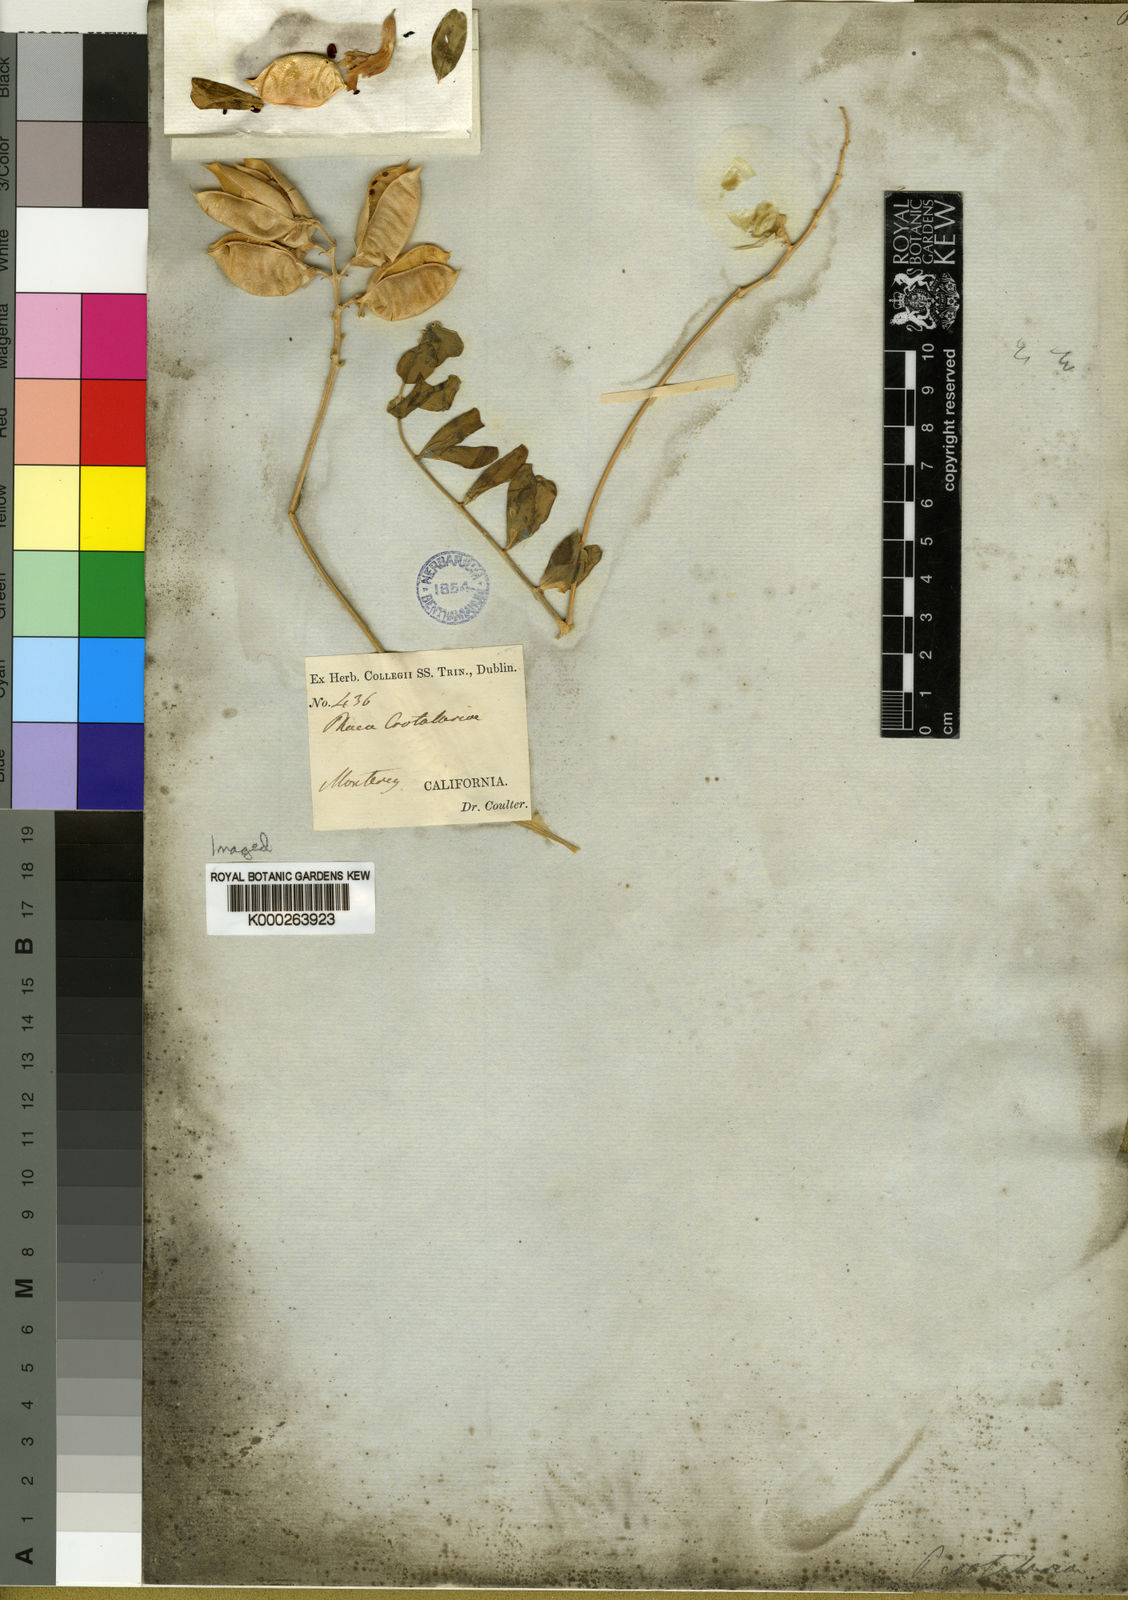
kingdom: Plantae
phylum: Tracheophyta
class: Magnoliopsida
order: Fabales
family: Fabaceae
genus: Astragalus
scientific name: Astragalus
